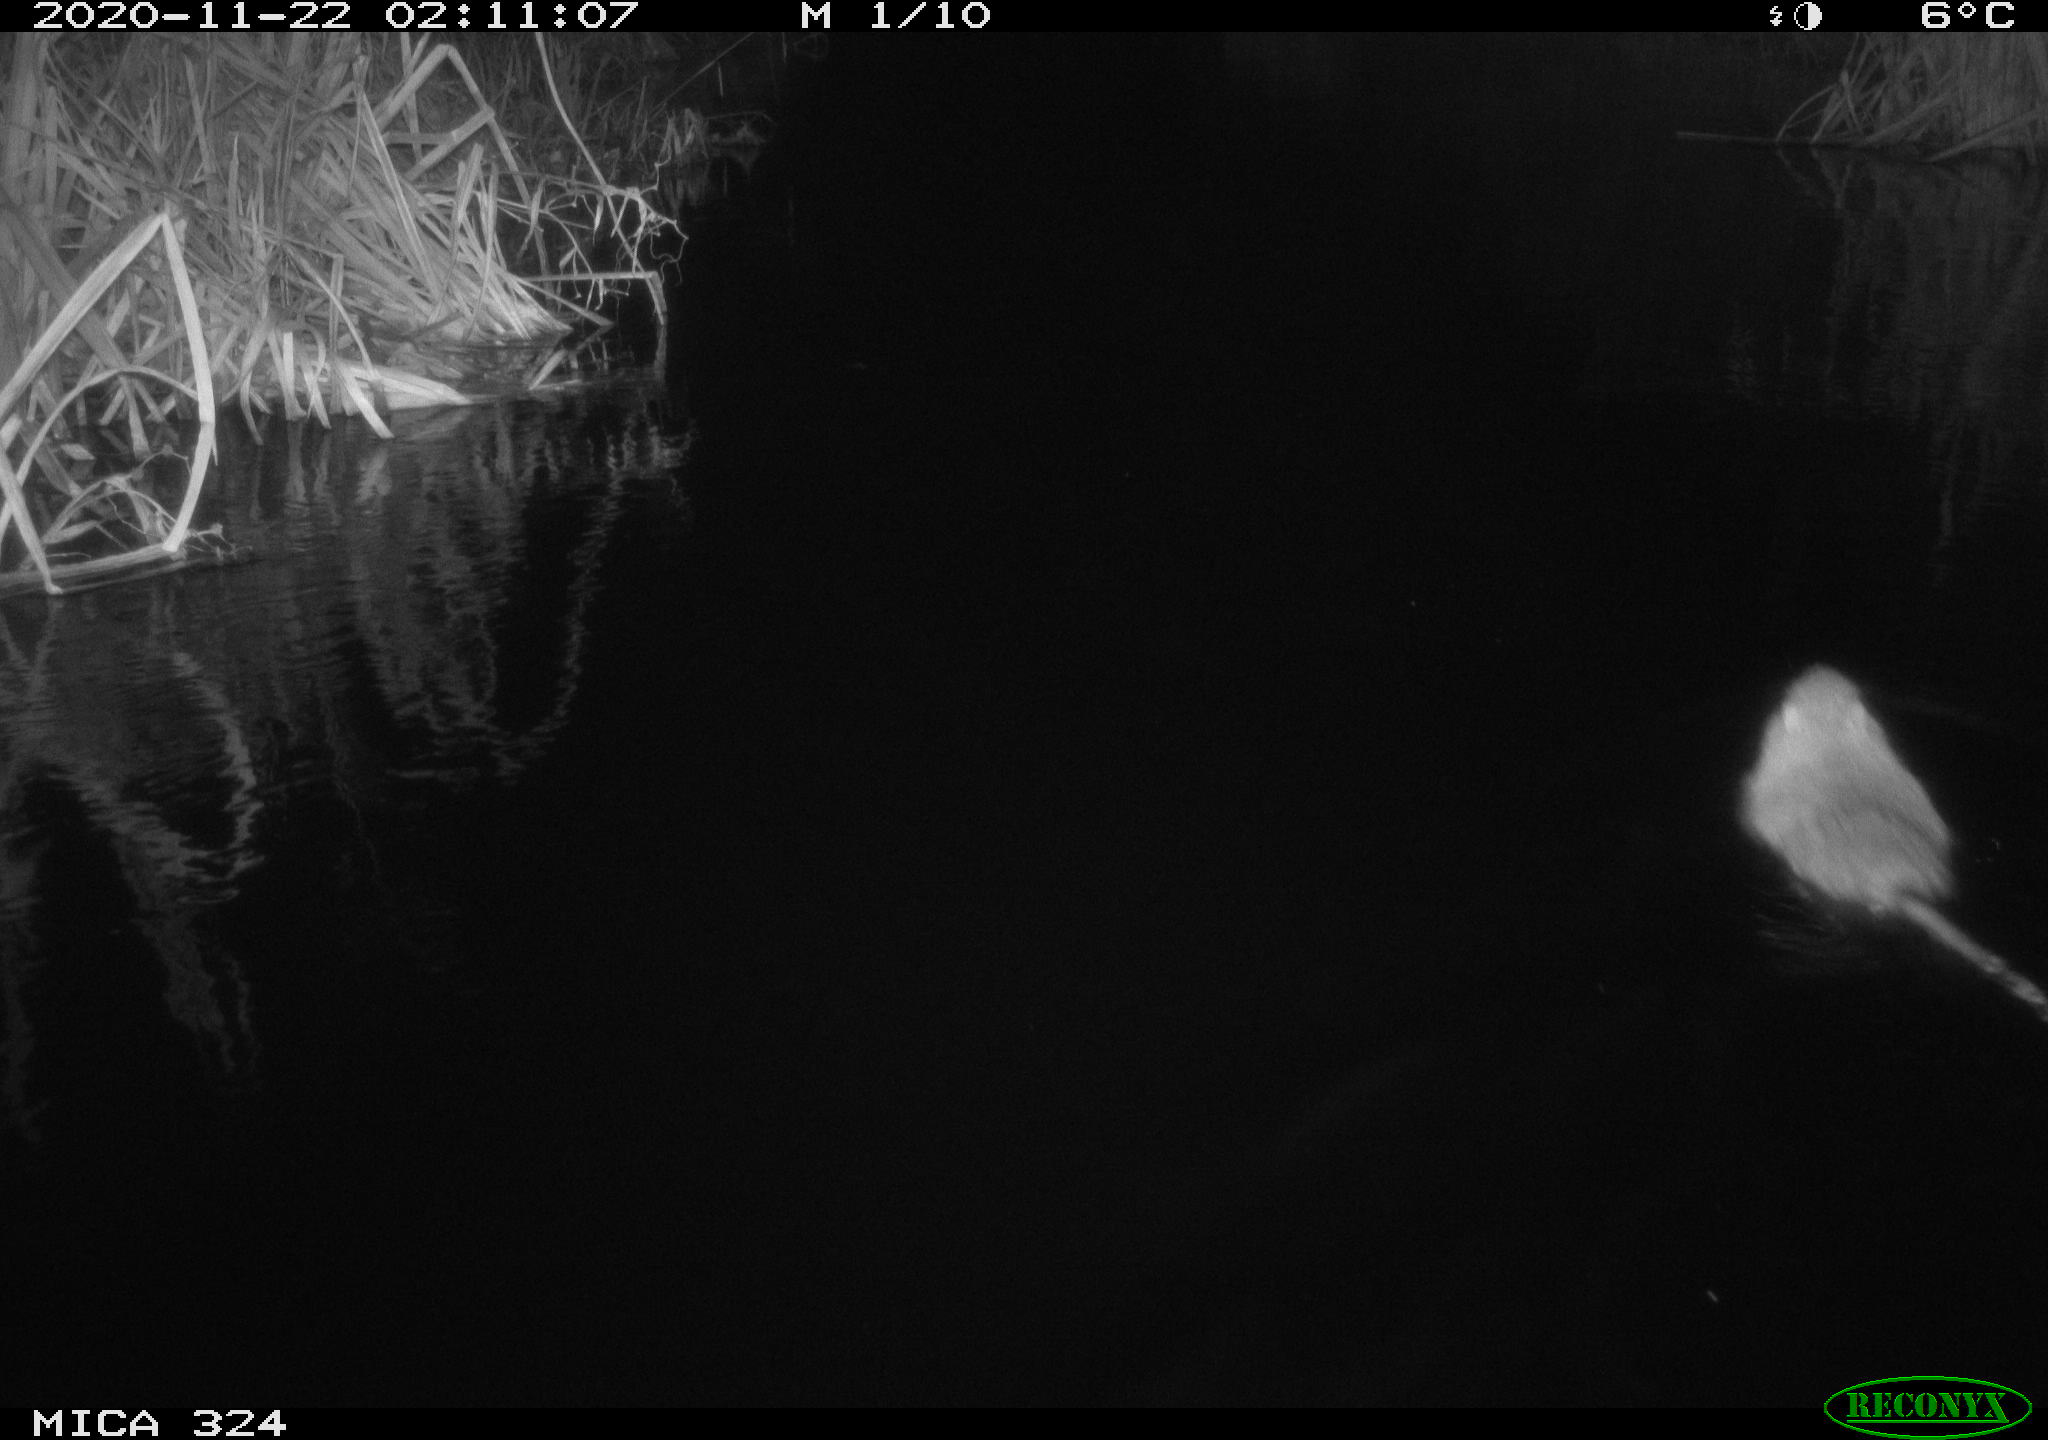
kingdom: Animalia
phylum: Chordata
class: Mammalia
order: Rodentia
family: Myocastoridae
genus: Myocastor
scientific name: Myocastor coypus
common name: Coypu
